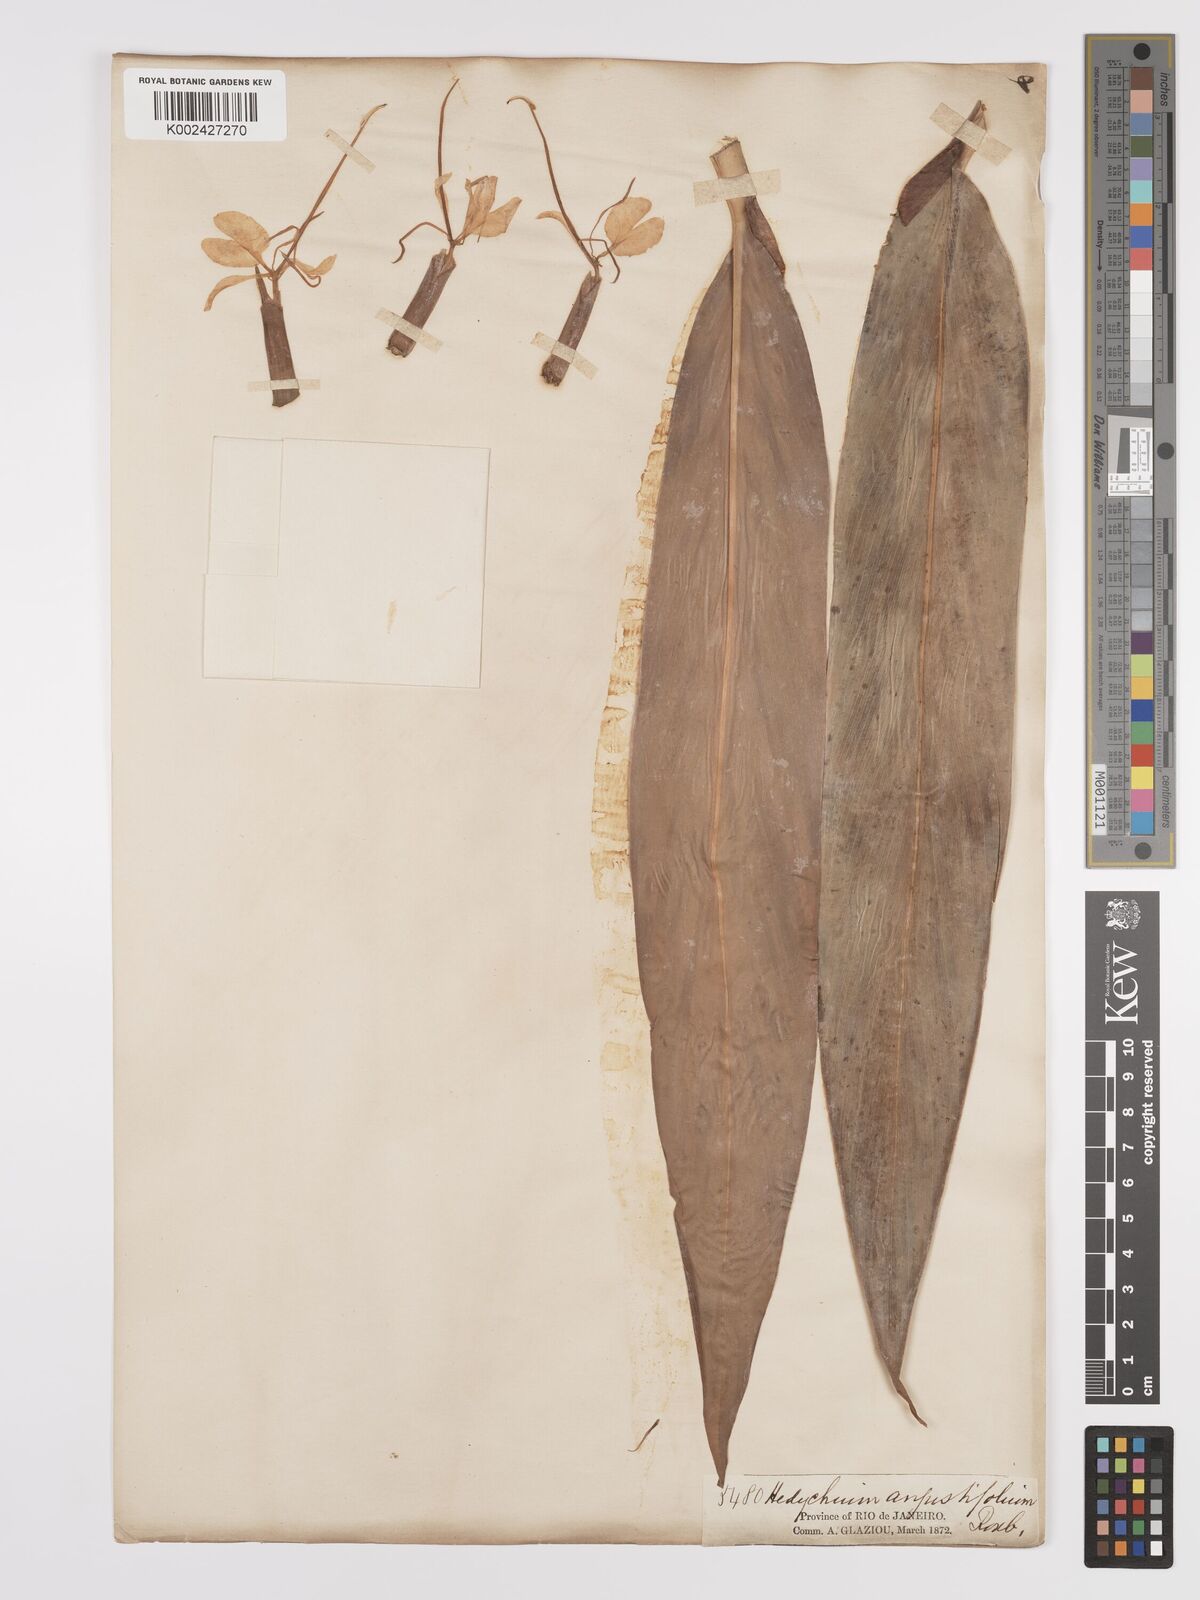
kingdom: Plantae
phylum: Tracheophyta
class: Liliopsida
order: Zingiberales
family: Zingiberaceae
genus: Hedychium
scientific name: Hedychium coccineum
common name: Red ginger-lily
